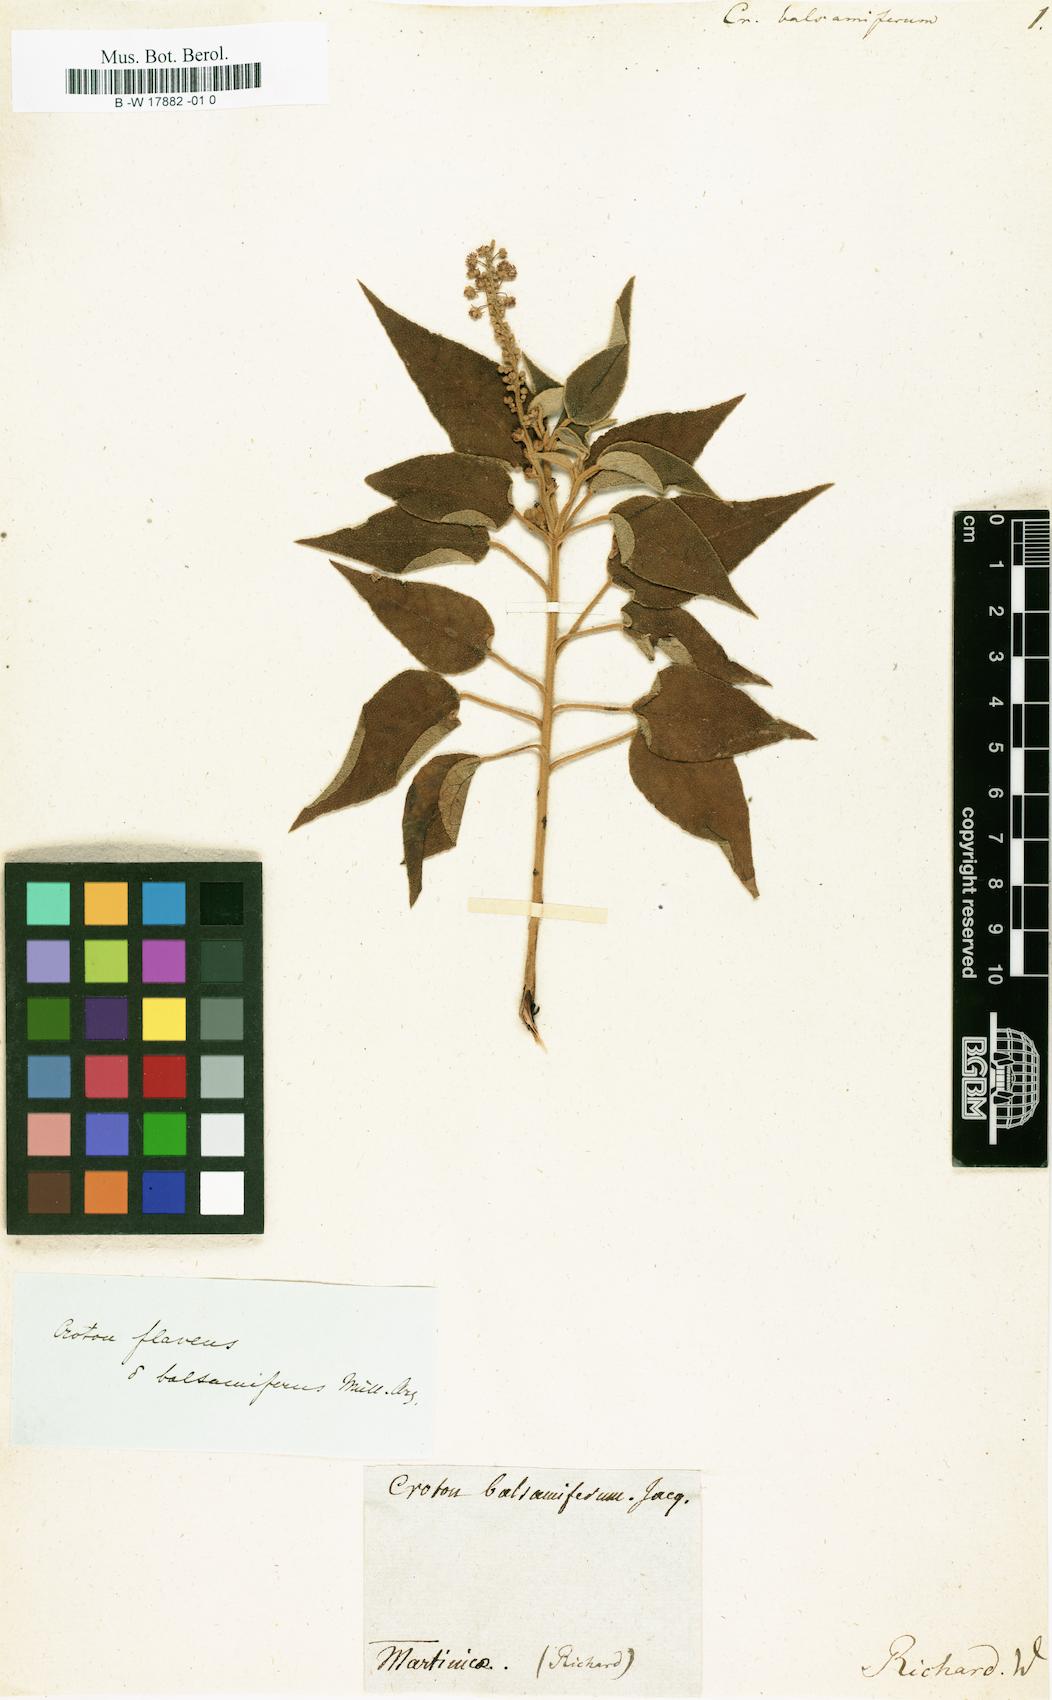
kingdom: Plantae
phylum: Tracheophyta
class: Magnoliopsida
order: Malpighiales
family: Euphorbiaceae
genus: Croton
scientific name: Croton flavens
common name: Yellow balsam
